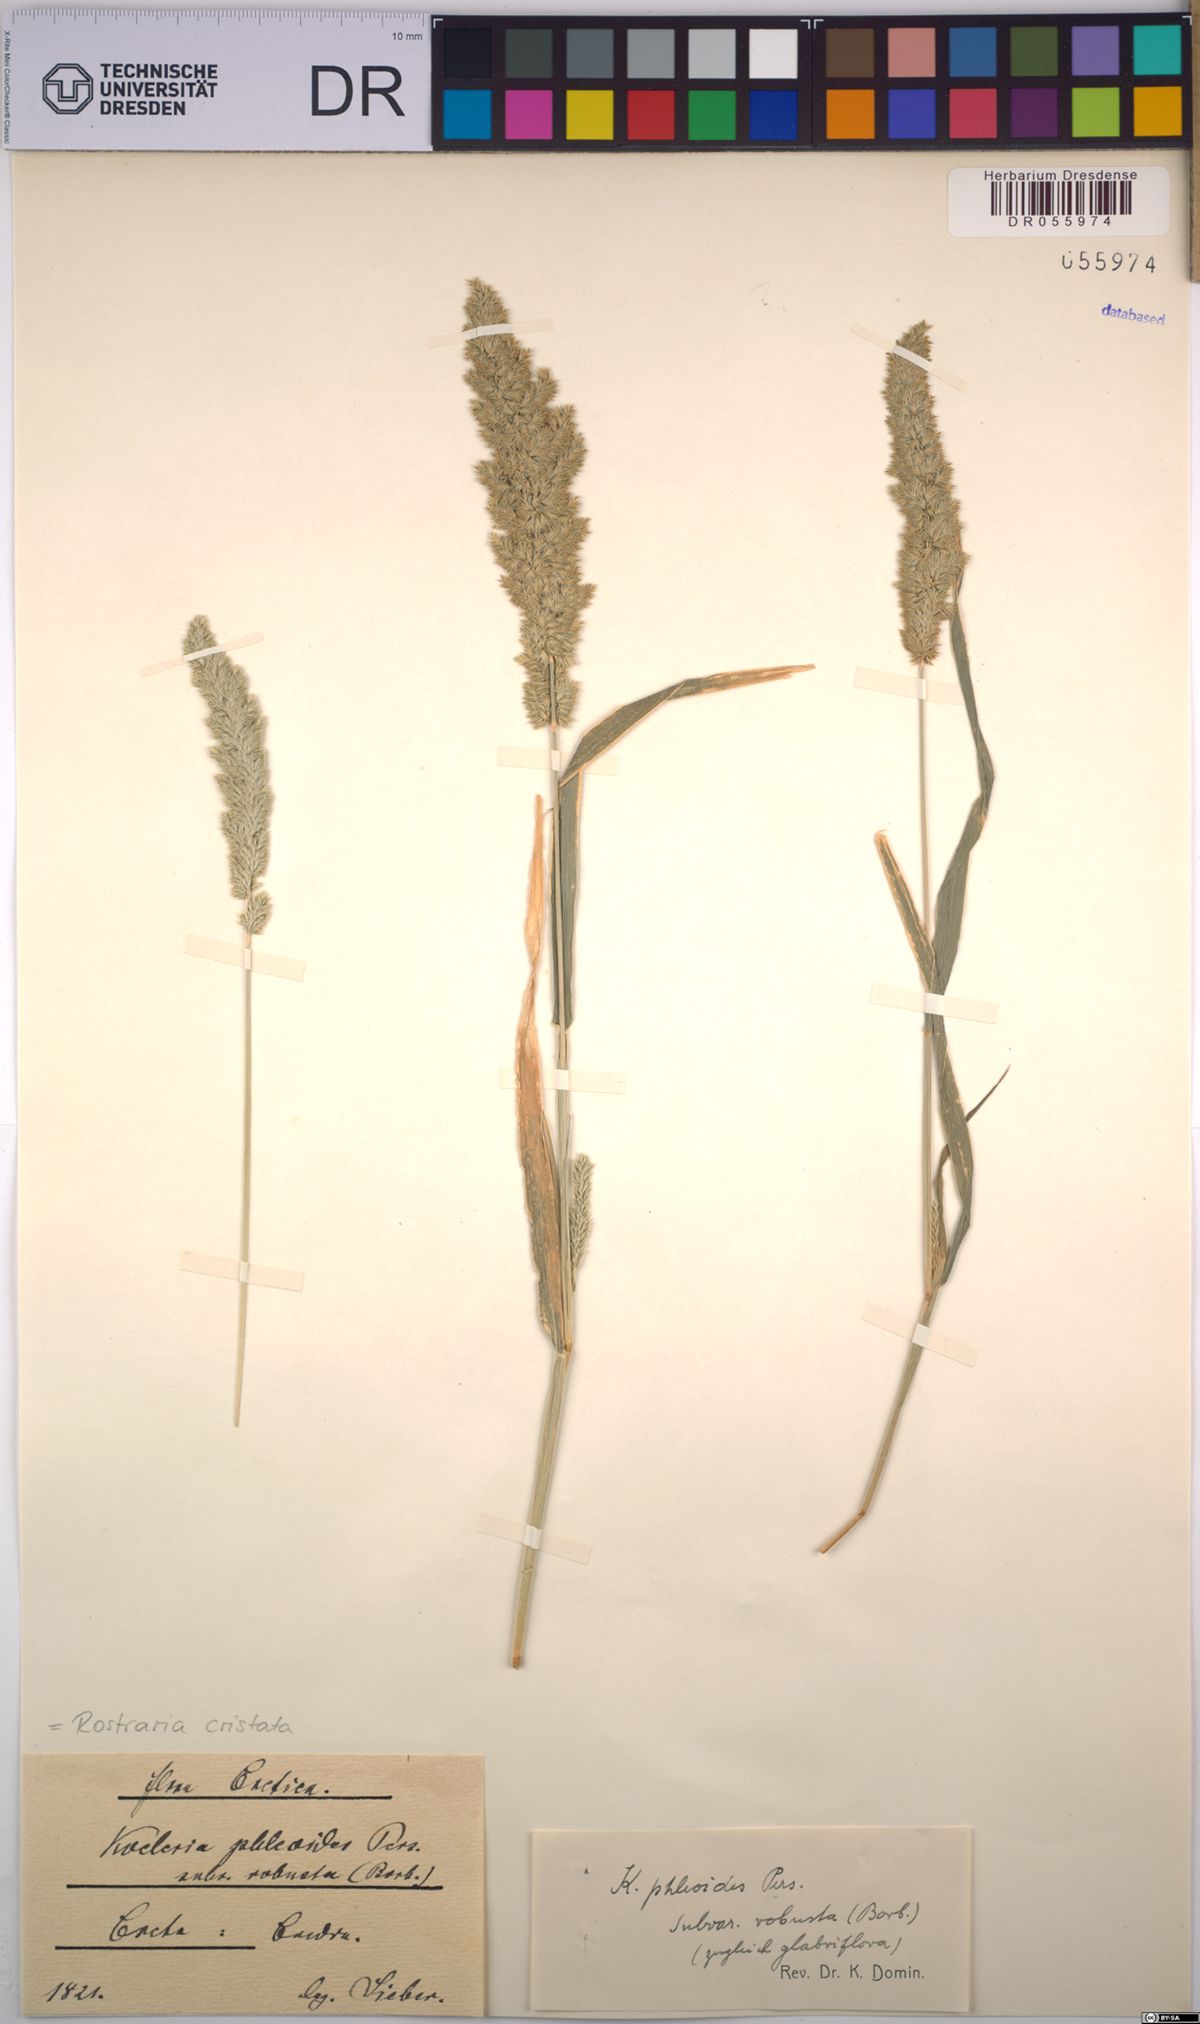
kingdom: Plantae
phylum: Tracheophyta
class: Liliopsida
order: Poales
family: Poaceae
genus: Rostraria
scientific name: Rostraria cristata
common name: Mediterranean hair-grass
